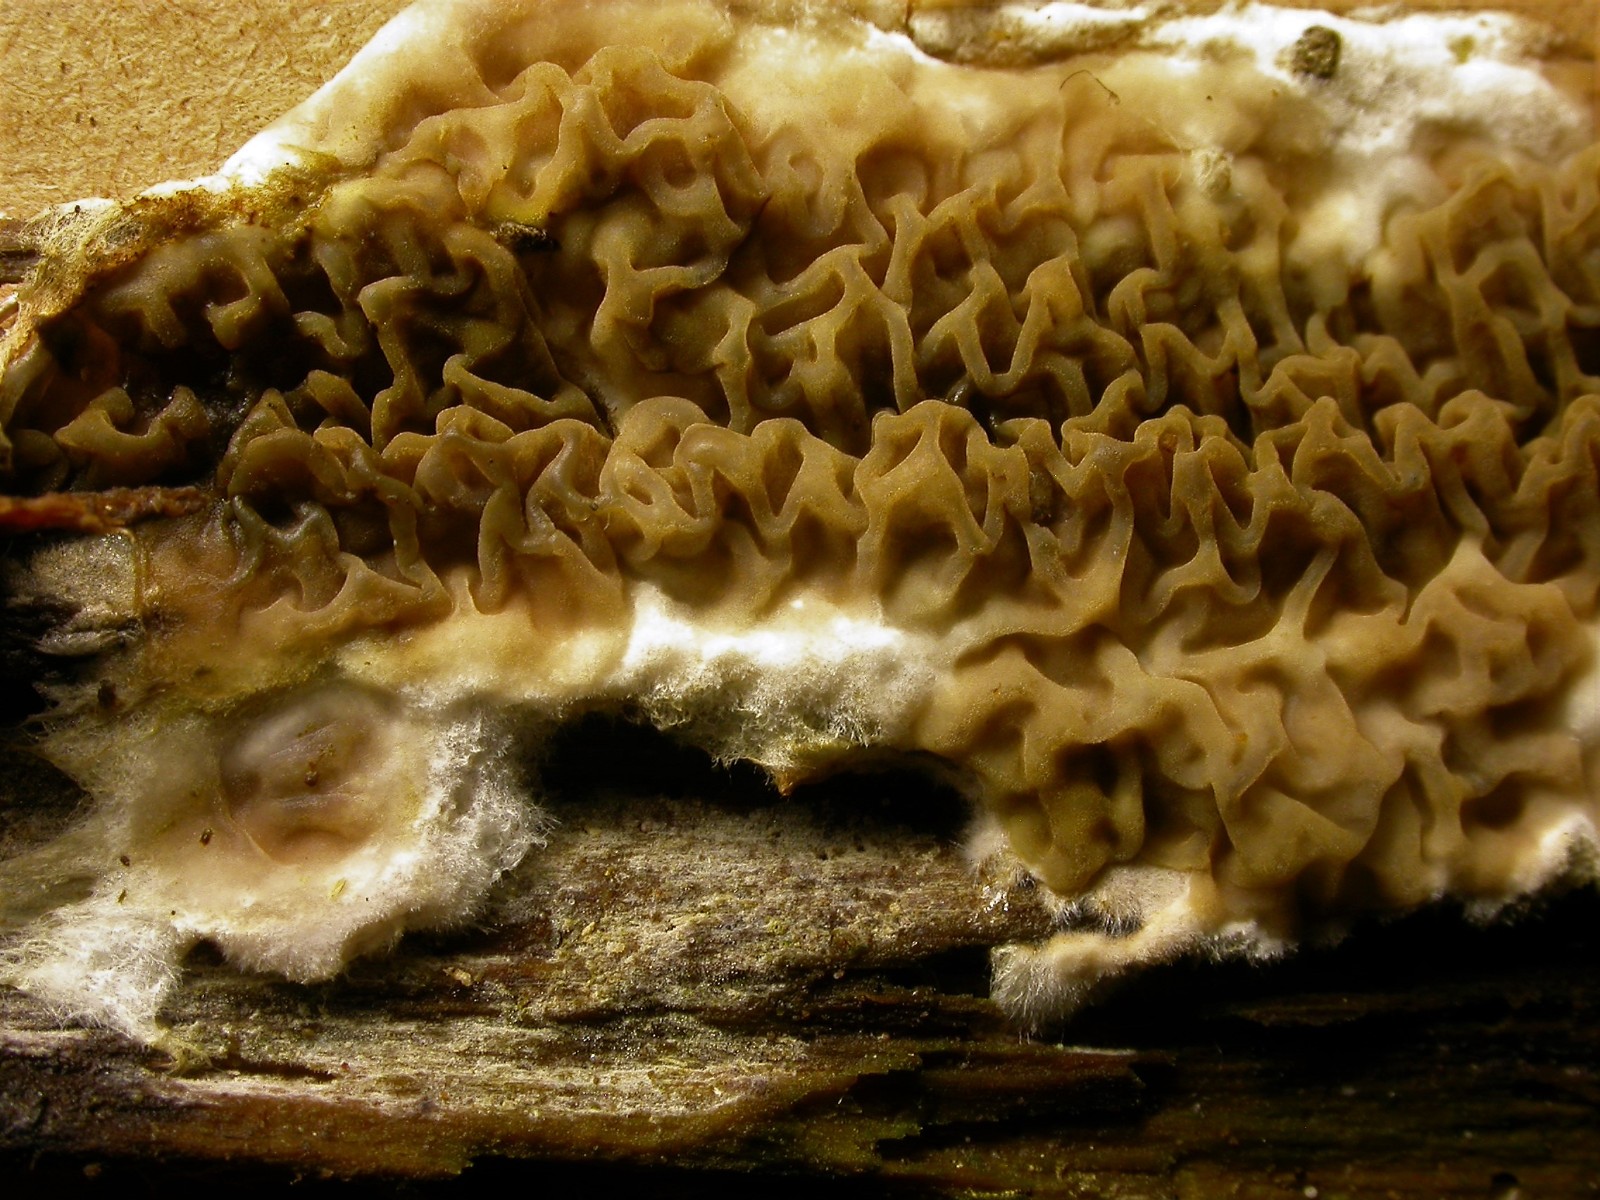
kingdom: Fungi
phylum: Basidiomycota
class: Agaricomycetes
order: Boletales
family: Serpulaceae
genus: Serpula
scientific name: Serpula himantioides
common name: tyndkødet hussvamp
